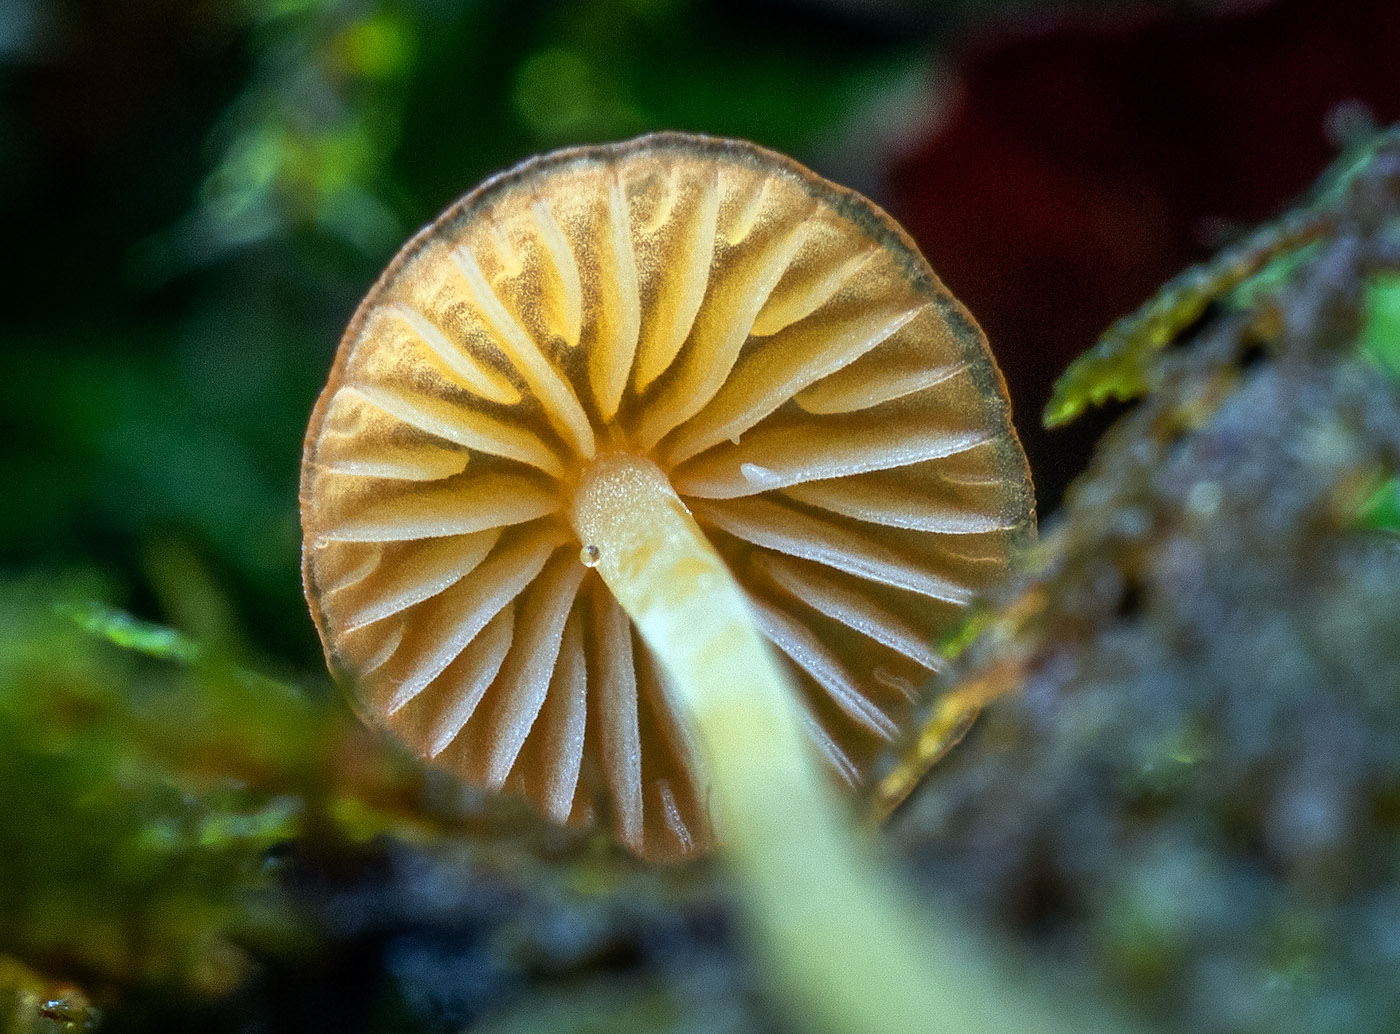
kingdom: Fungi
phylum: Basidiomycota
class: Agaricomycetes
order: Agaricales
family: Mycenaceae
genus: Mycena
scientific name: Mycena acicula
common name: orange huesvamp
